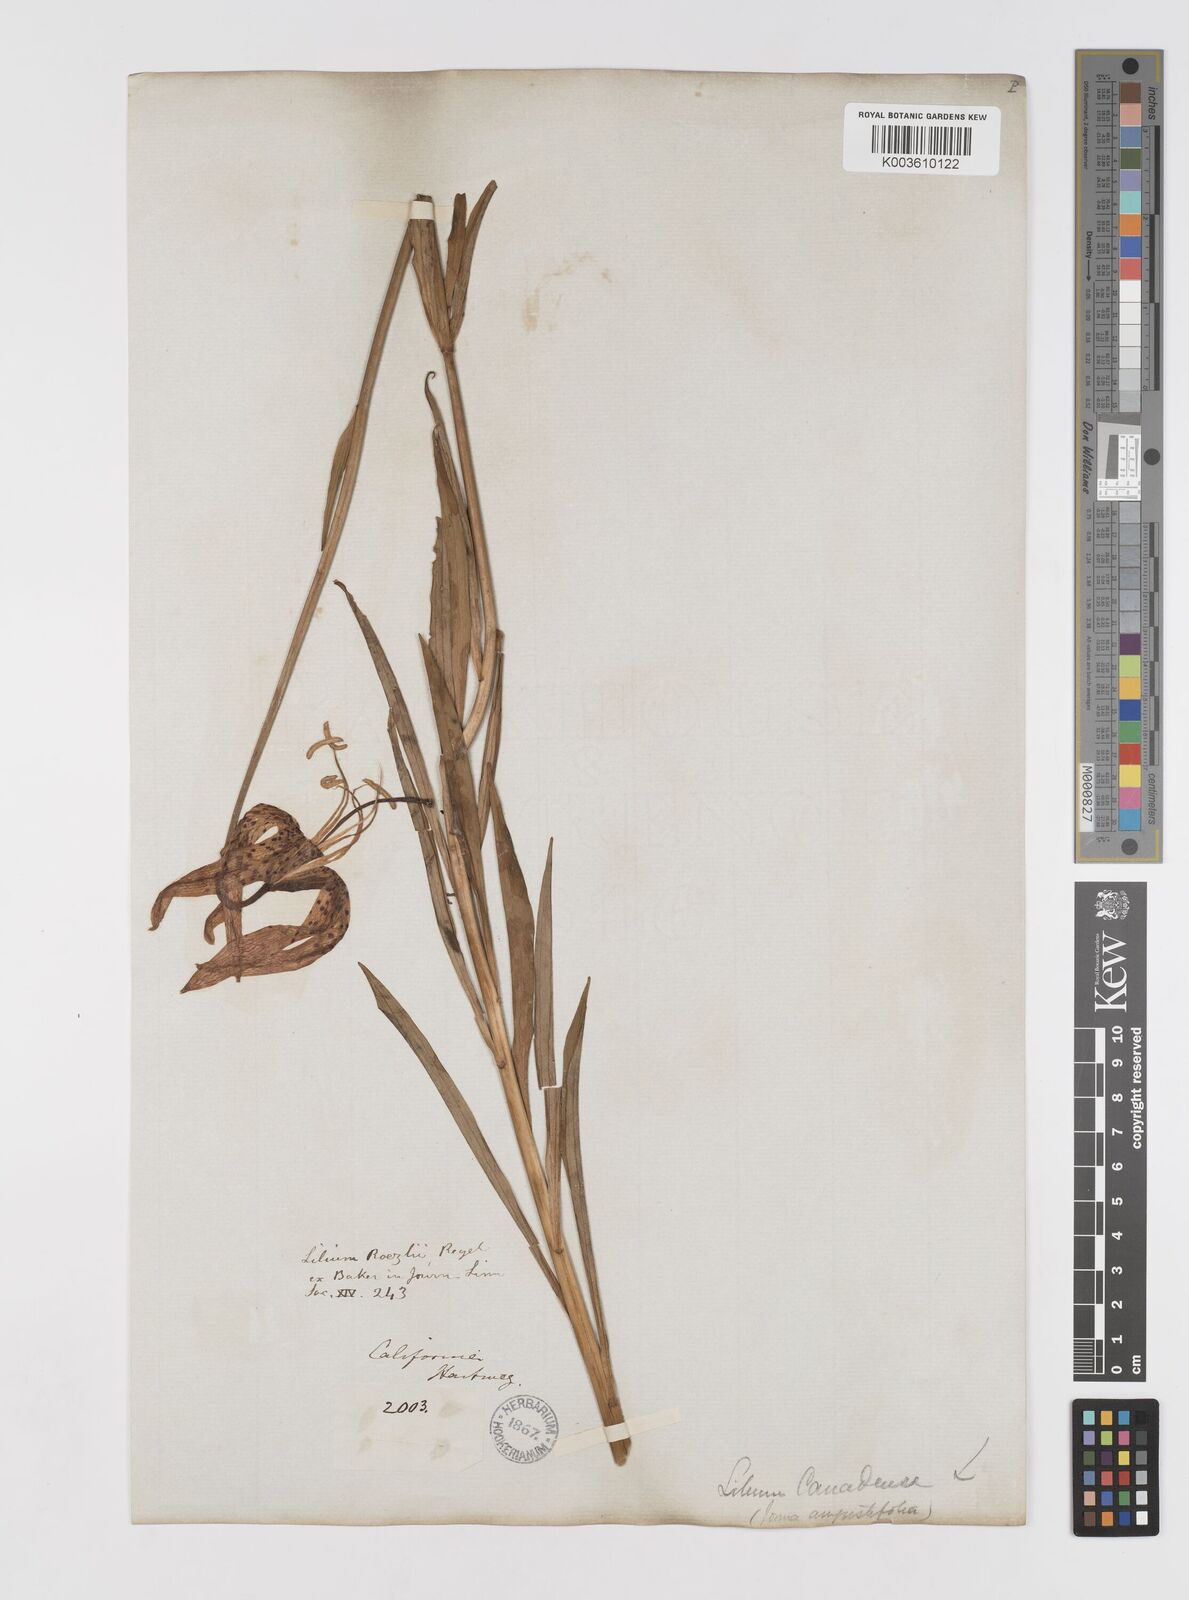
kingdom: Plantae
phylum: Tracheophyta
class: Liliopsida
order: Liliales
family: Liliaceae
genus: Lilium
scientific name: Lilium pardalinum
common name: Panther lily
